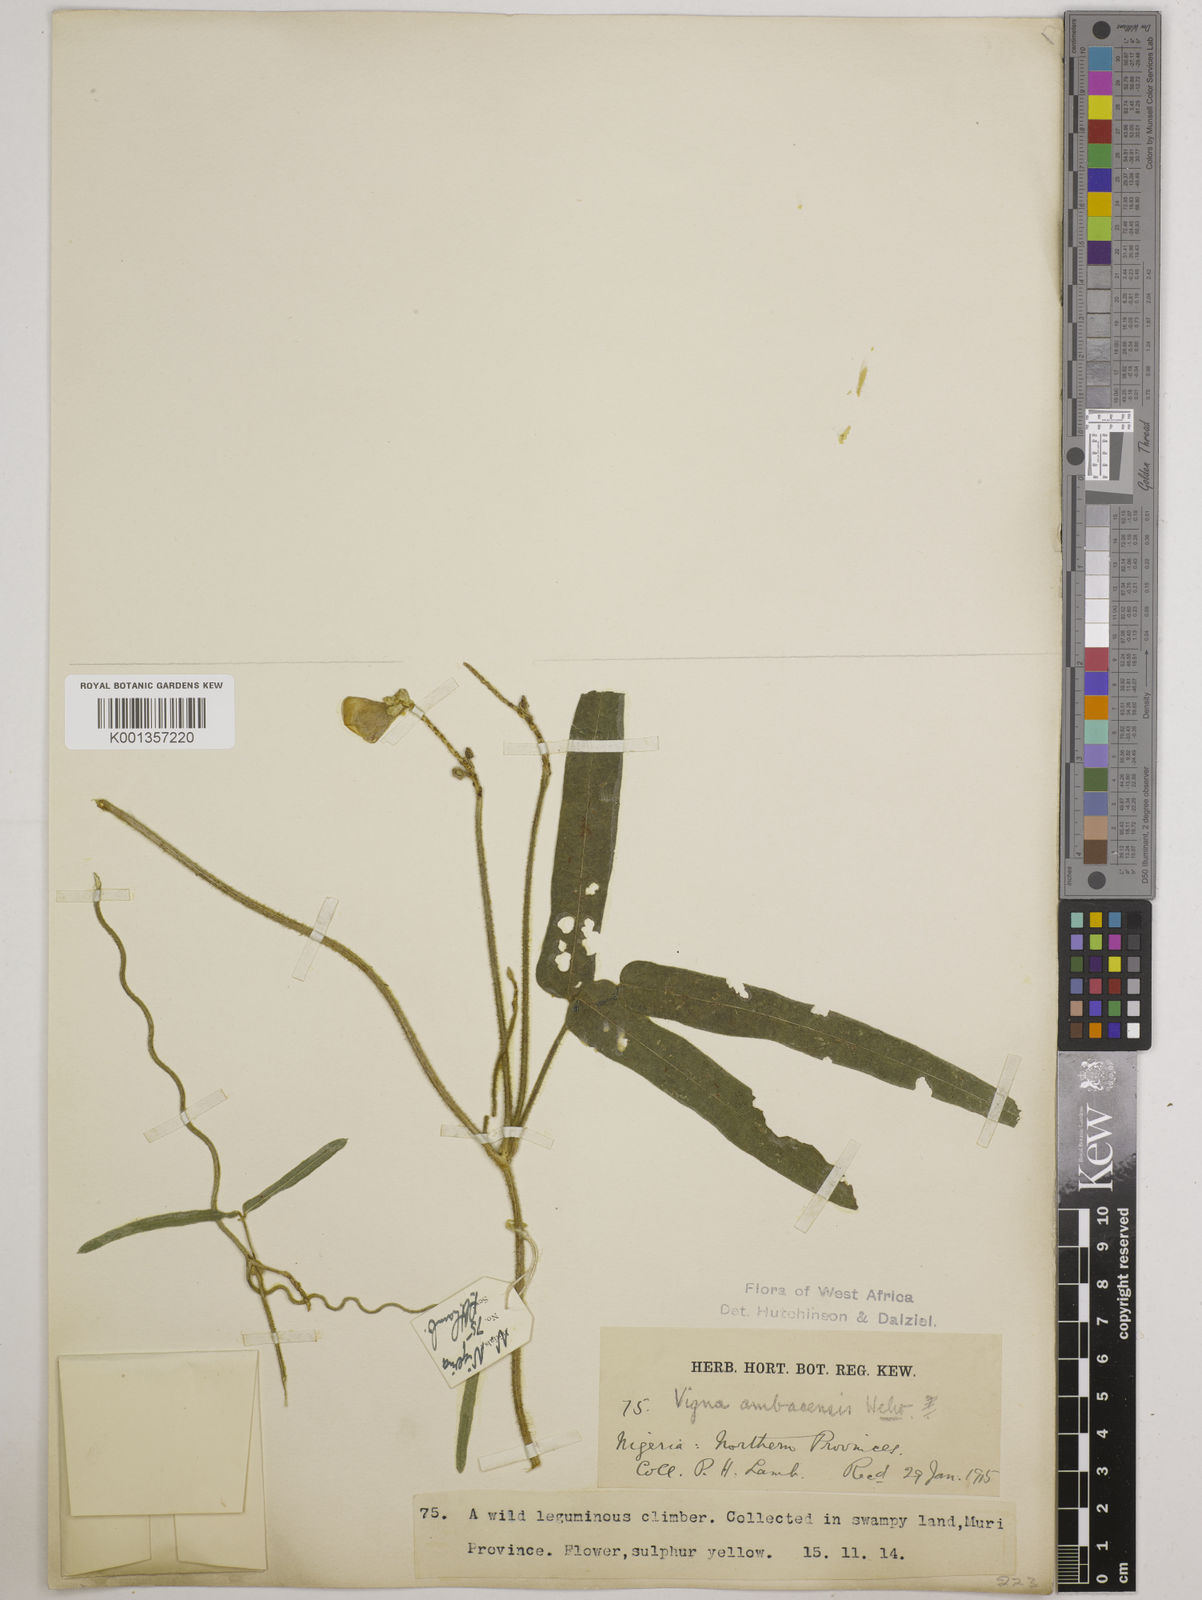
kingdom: Plantae
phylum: Tracheophyta
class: Magnoliopsida
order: Fabales
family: Fabaceae
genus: Vigna
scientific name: Vigna ambacensis
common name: Tsarkiyan zomo
